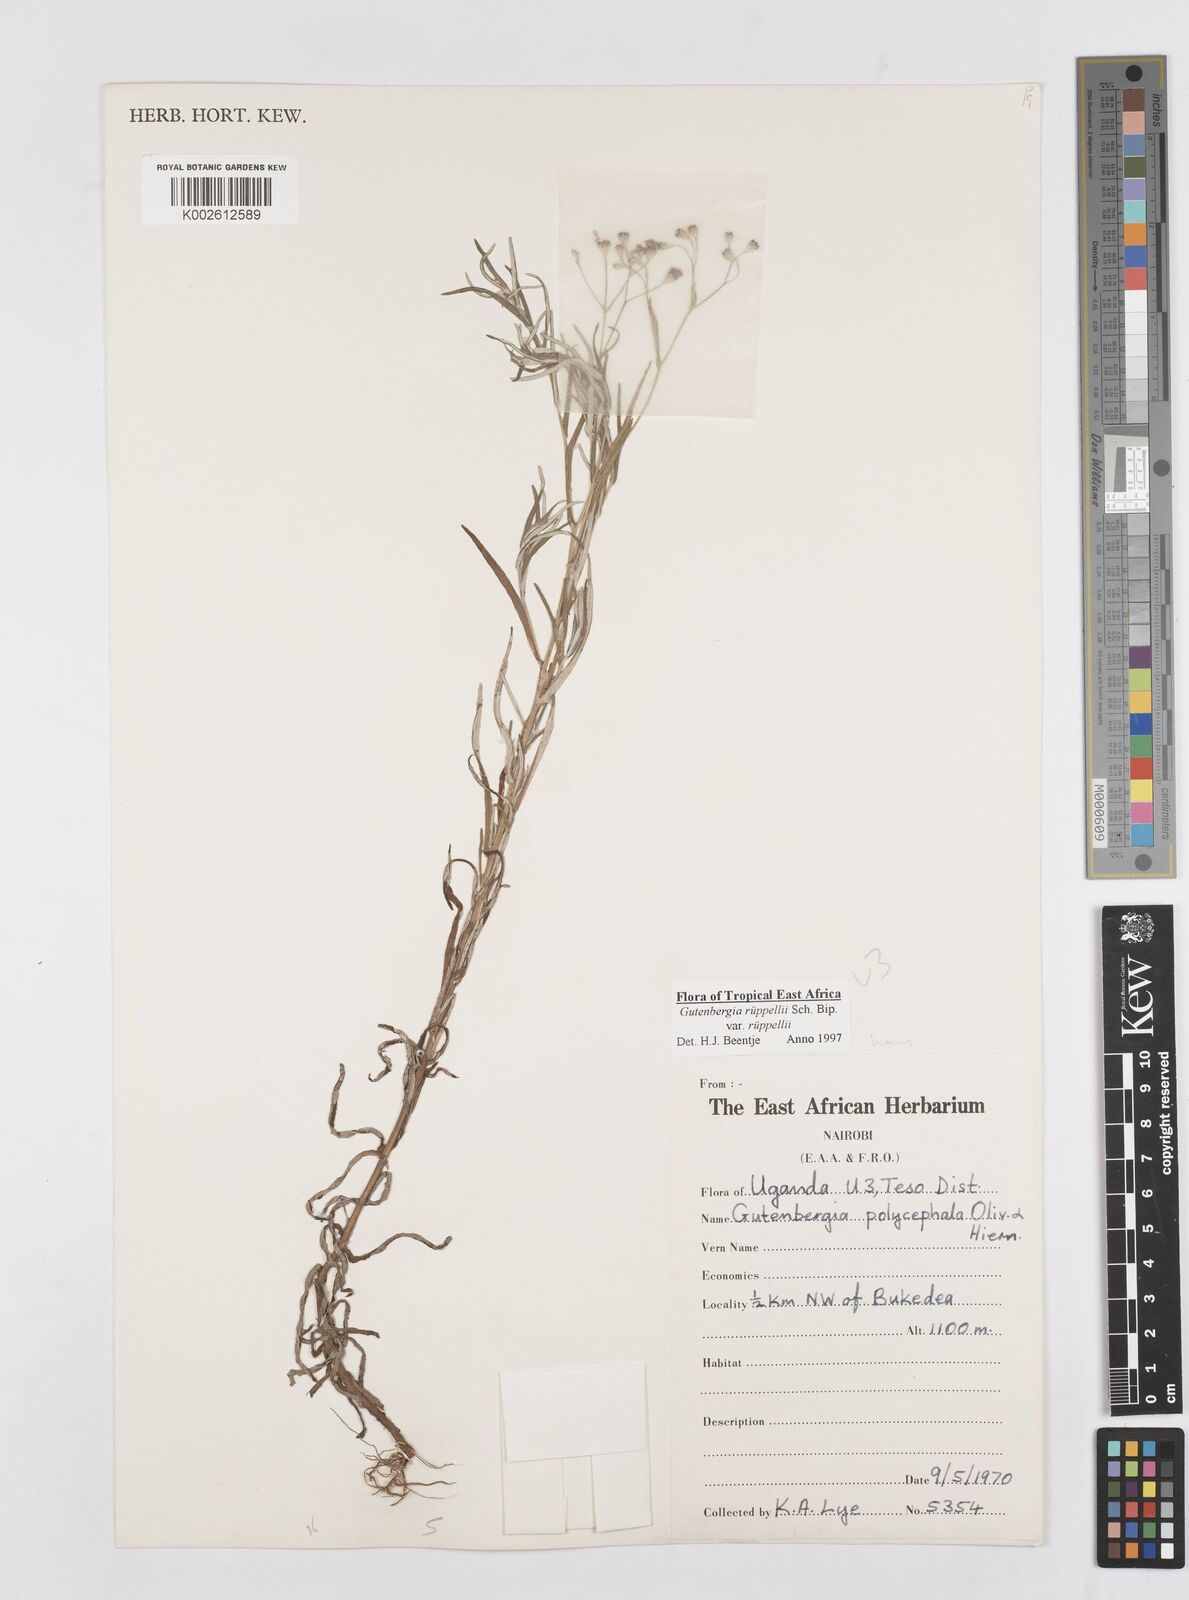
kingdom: Plantae
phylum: Tracheophyta
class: Magnoliopsida
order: Asterales
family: Asteraceae
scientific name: Asteraceae
